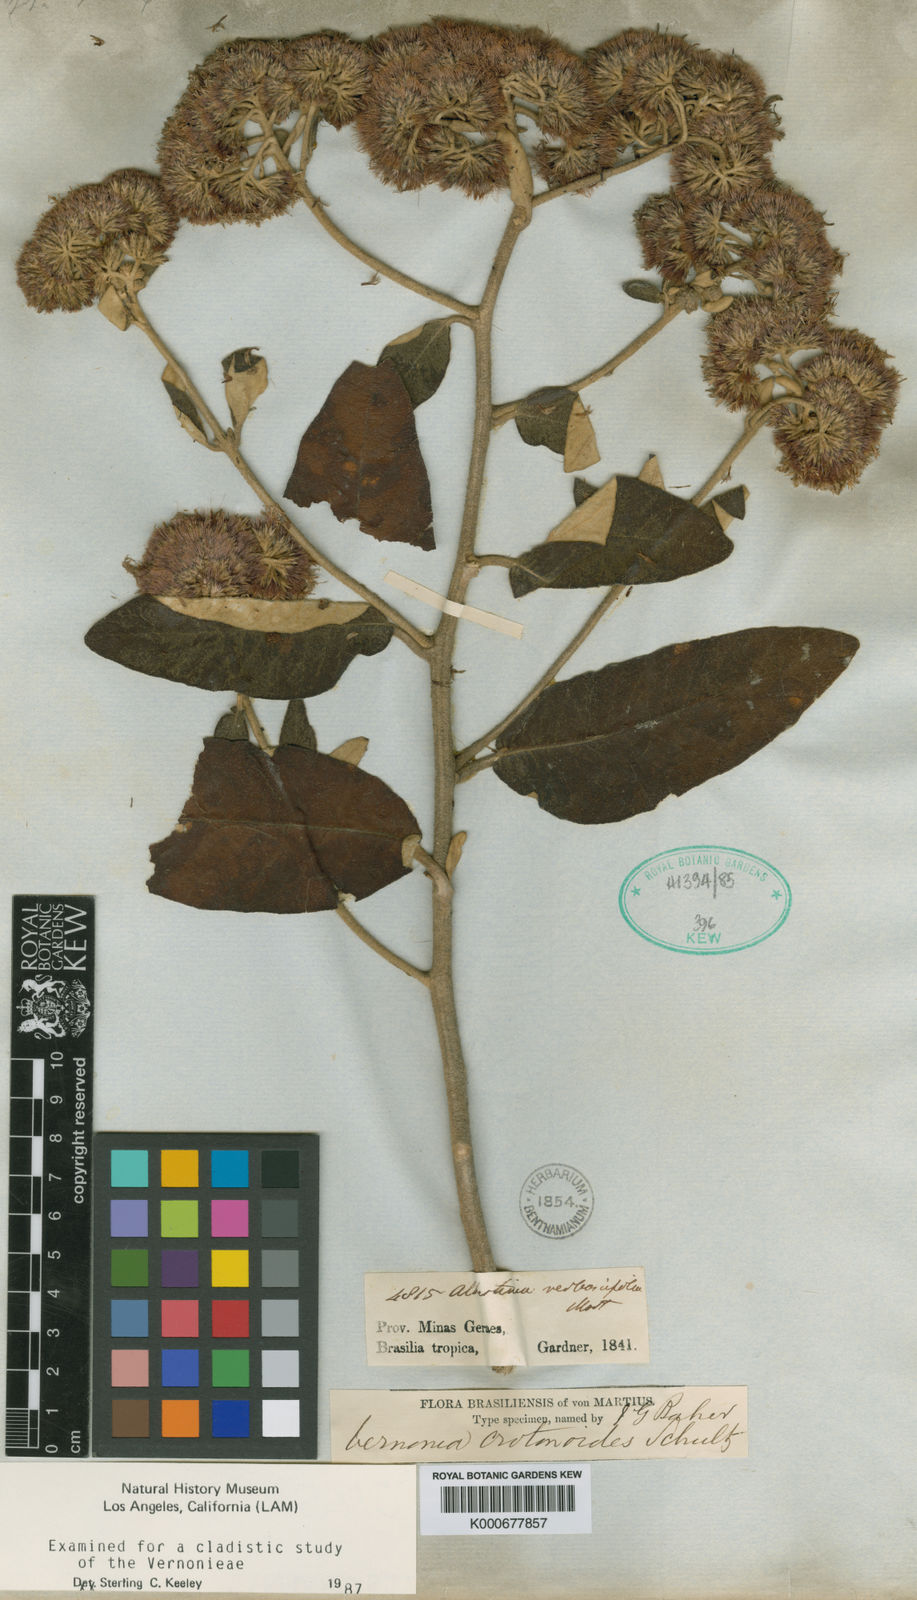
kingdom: Plantae
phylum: Tracheophyta
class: Magnoliopsida
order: Asterales
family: Asteraceae
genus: Eremanthus
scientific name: Eremanthus crotonoides
